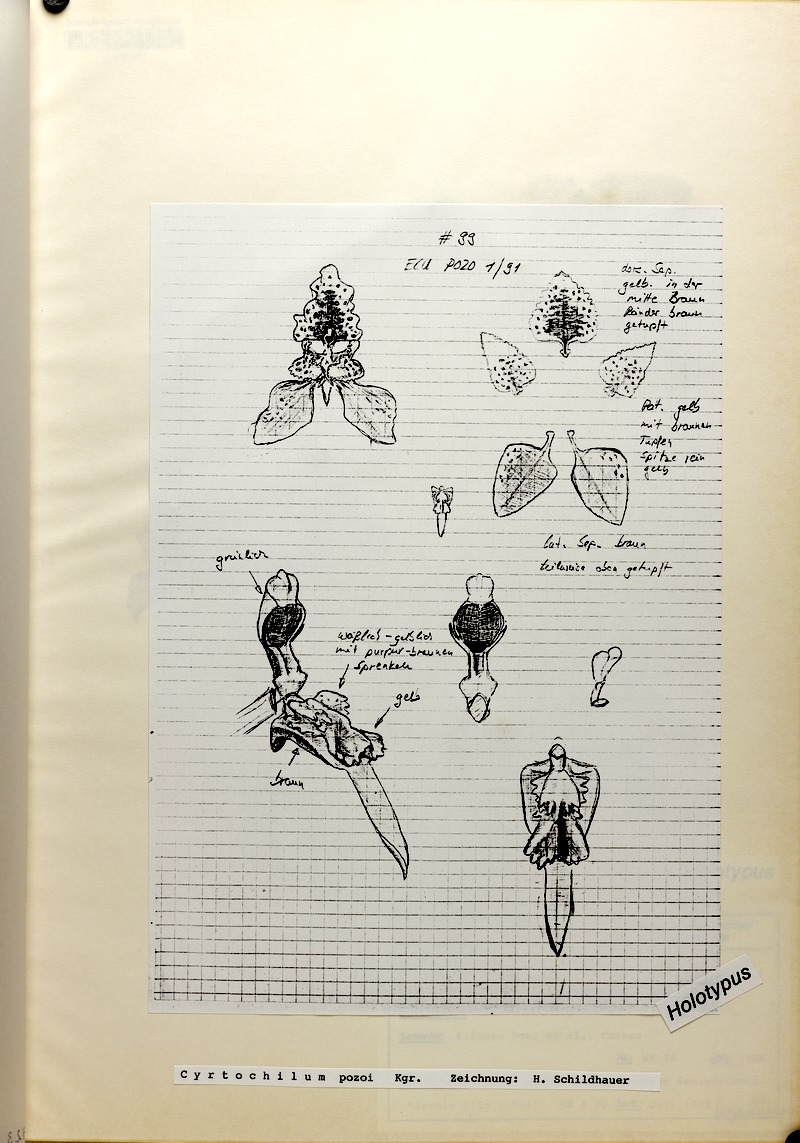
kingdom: Plantae
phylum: Tracheophyta
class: Liliopsida
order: Asparagales
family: Orchidaceae
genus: Cyrtochilum
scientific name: Cyrtochilum pozoi
